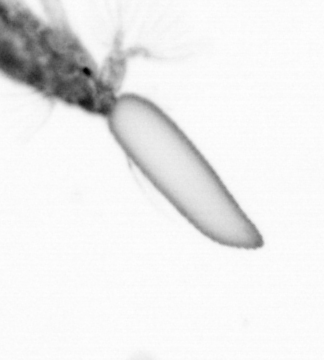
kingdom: Animalia
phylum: Arthropoda
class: Copepoda
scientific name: Copepoda
